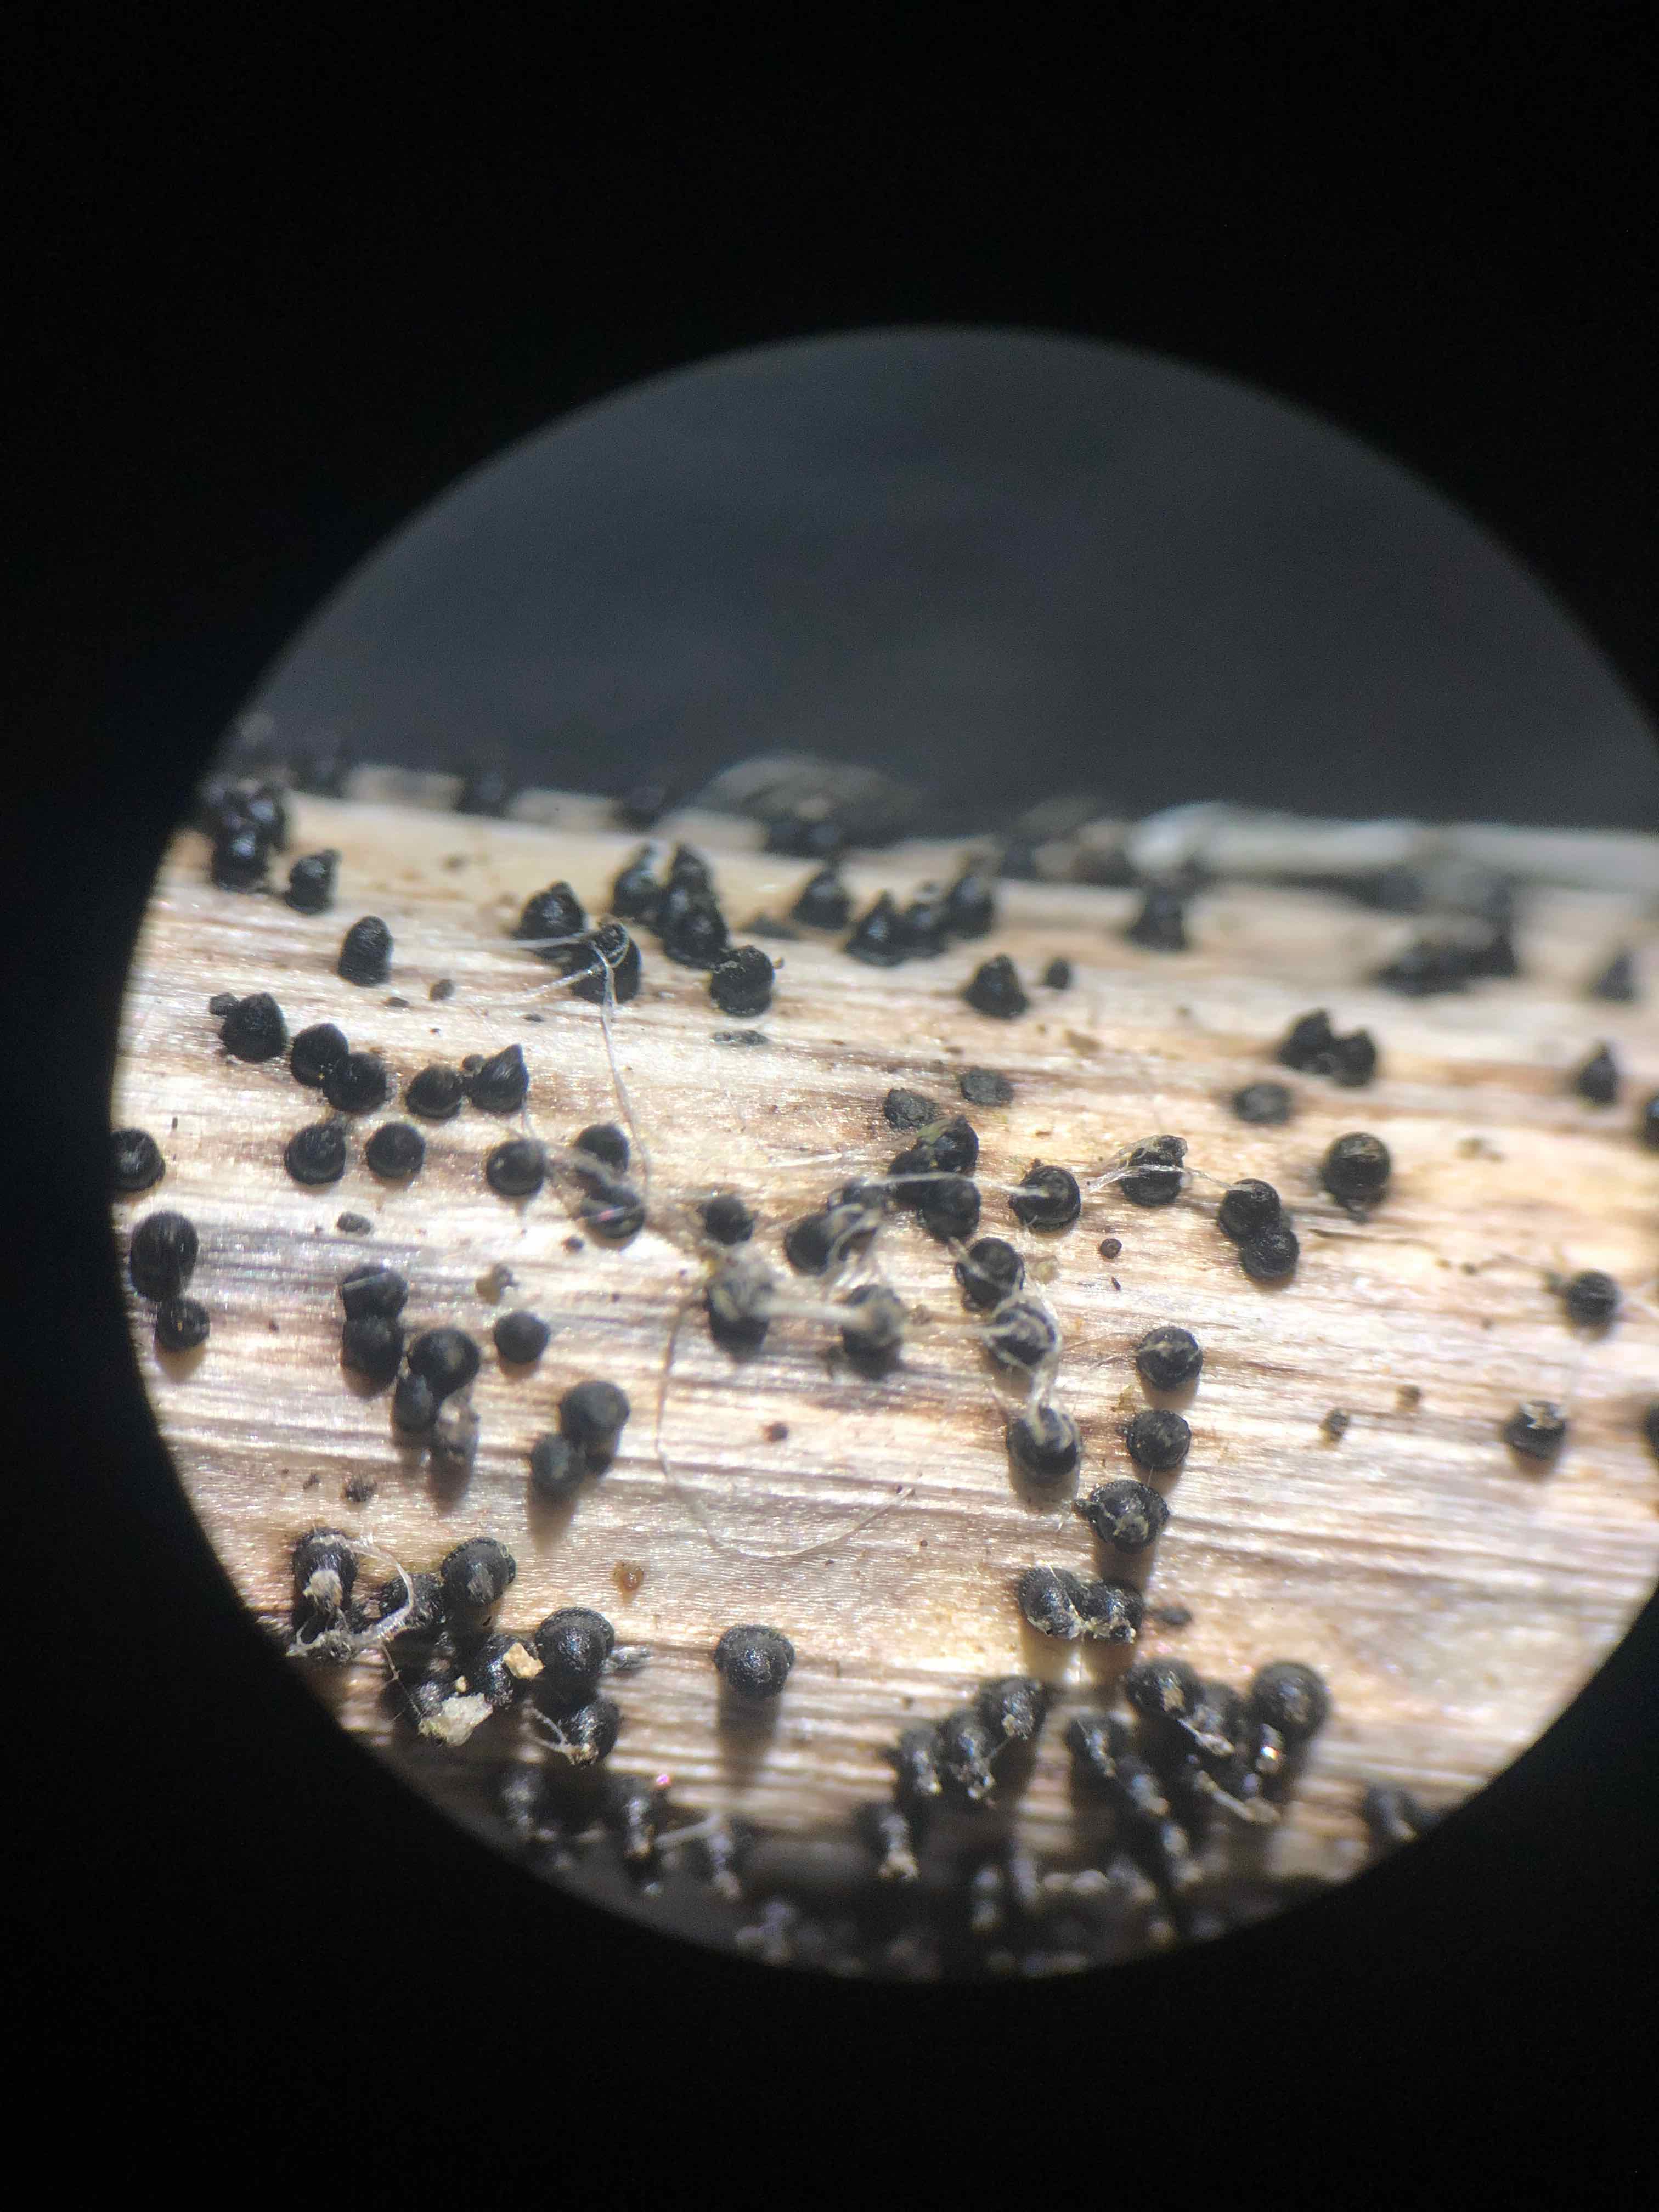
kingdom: Fungi
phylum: Ascomycota
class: Dothideomycetes
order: Pleosporales
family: Leptosphaeriaceae
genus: Leptosphaeria
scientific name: Leptosphaeria acuta
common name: spids kulkegle
